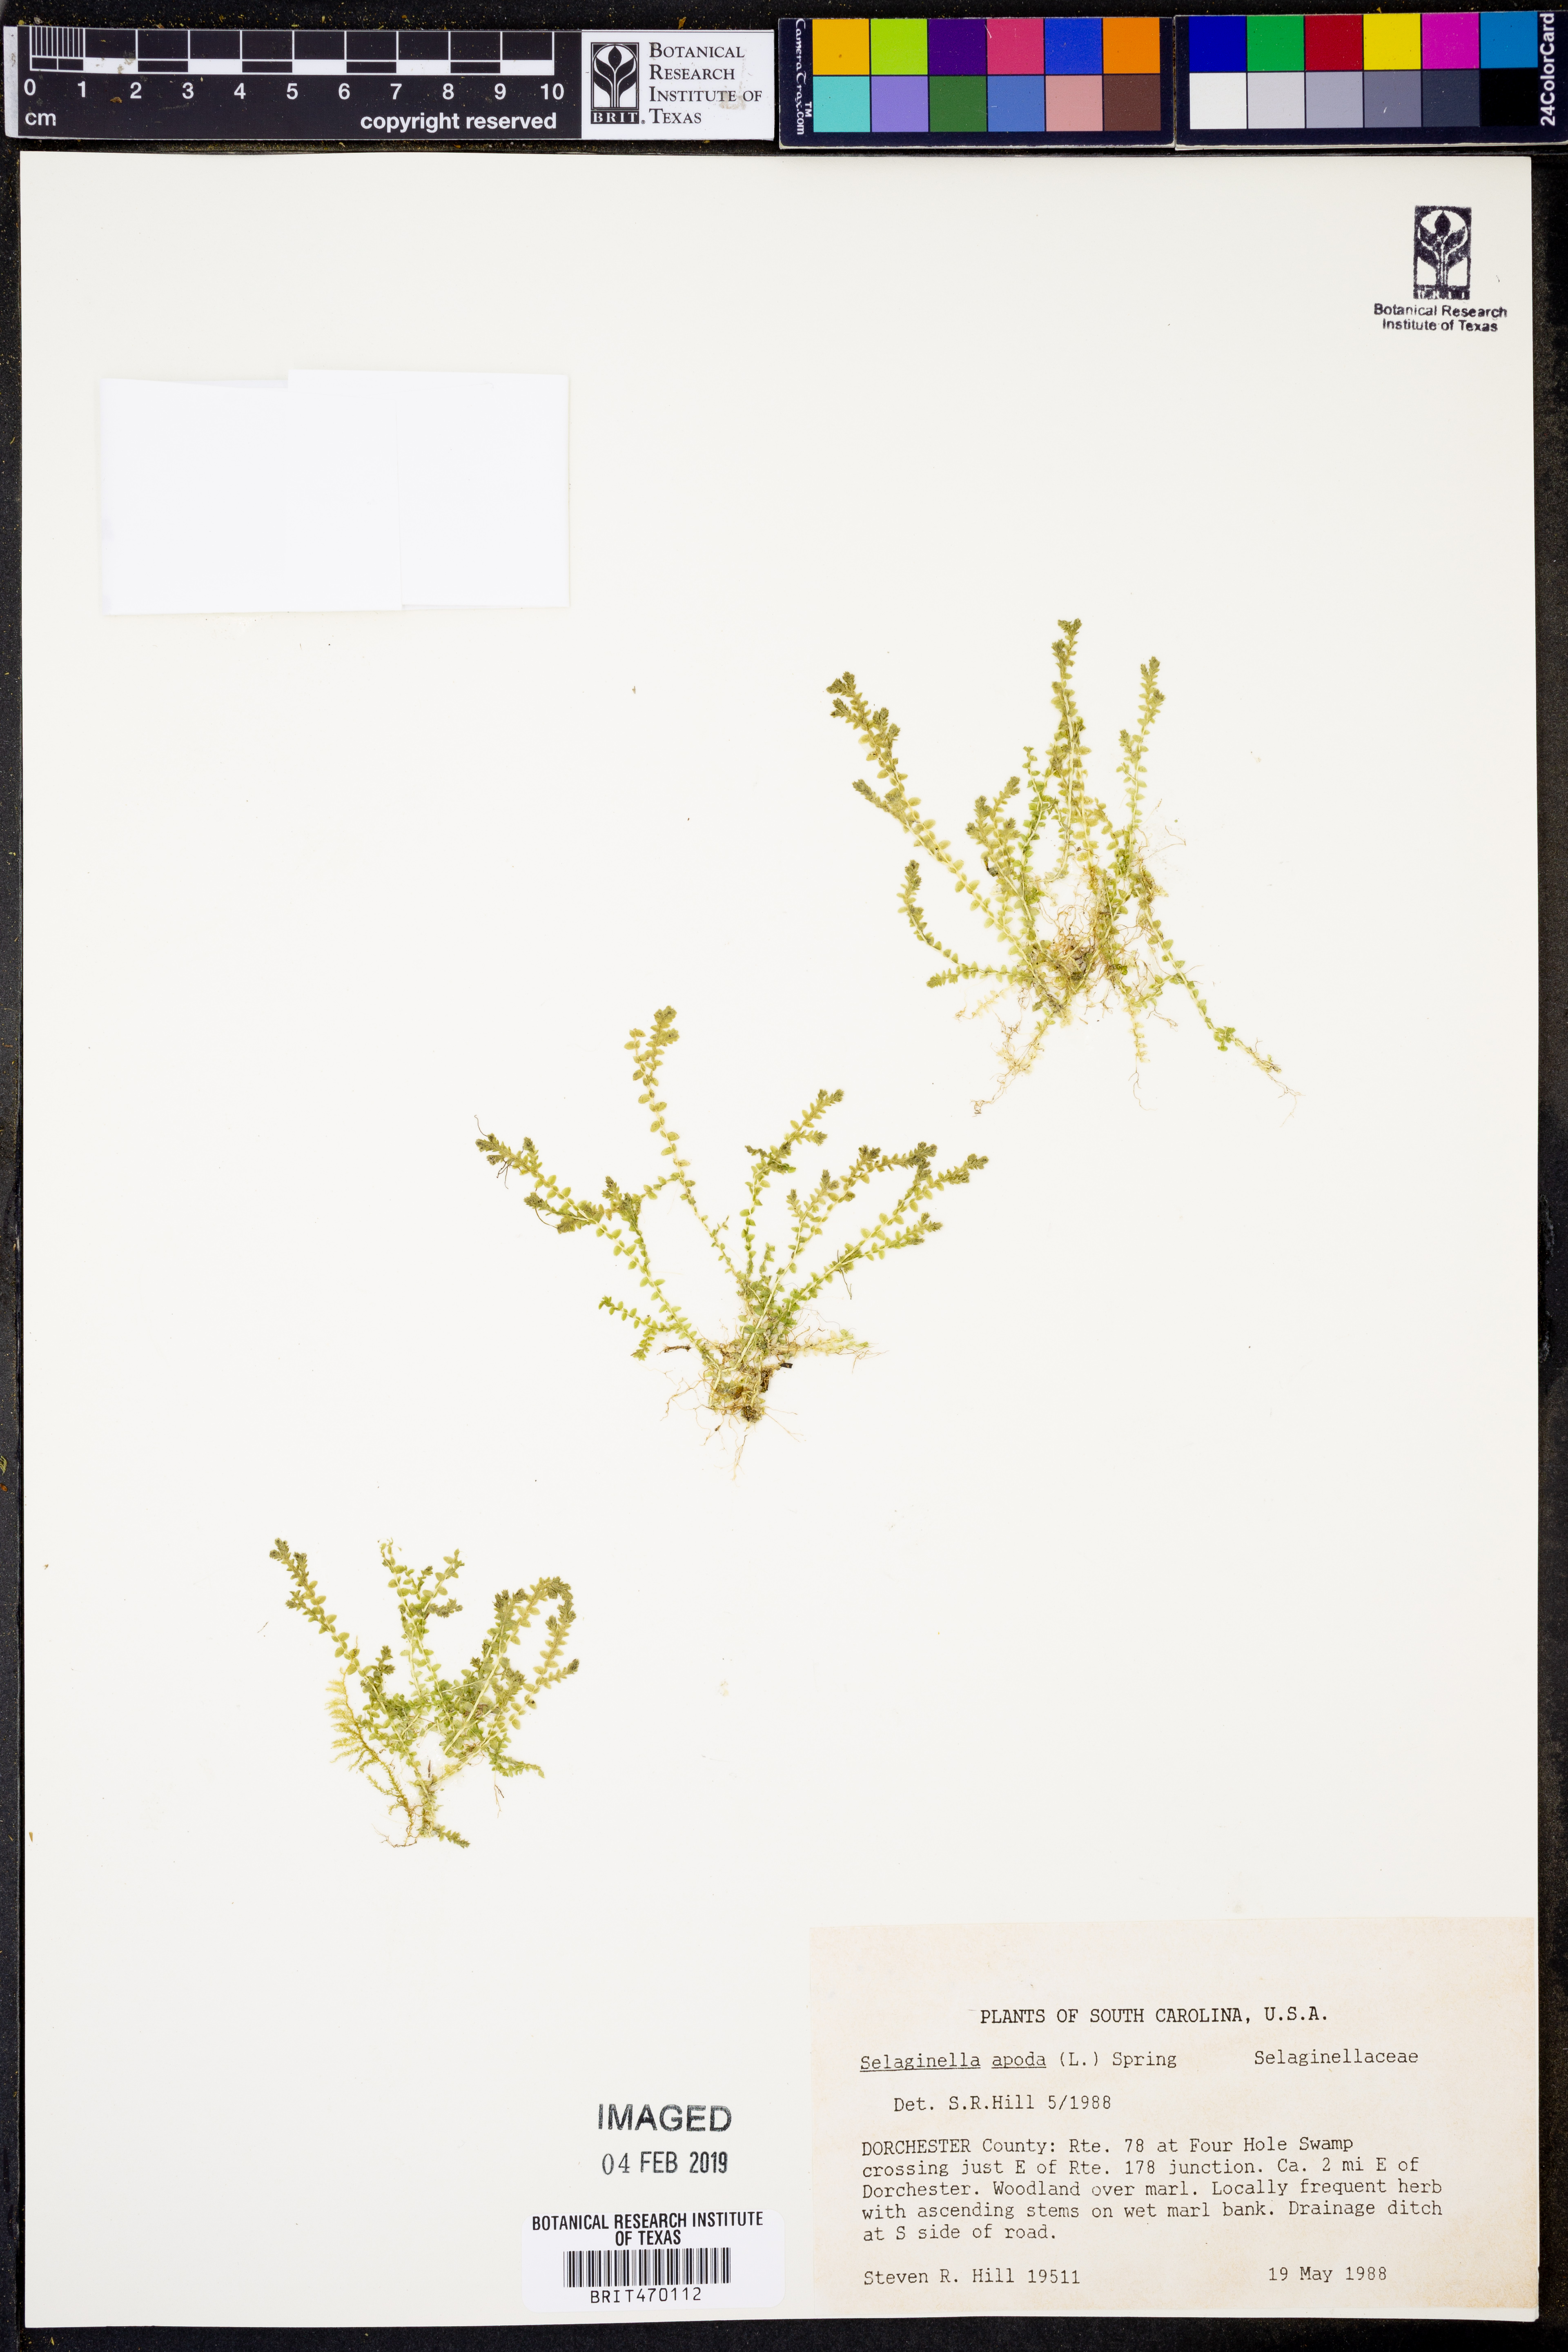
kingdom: Plantae
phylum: Tracheophyta
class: Lycopodiopsida
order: Selaginellales
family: Selaginellaceae
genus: Selaginella
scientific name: Selaginella apoda
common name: Creeping spikemoss
